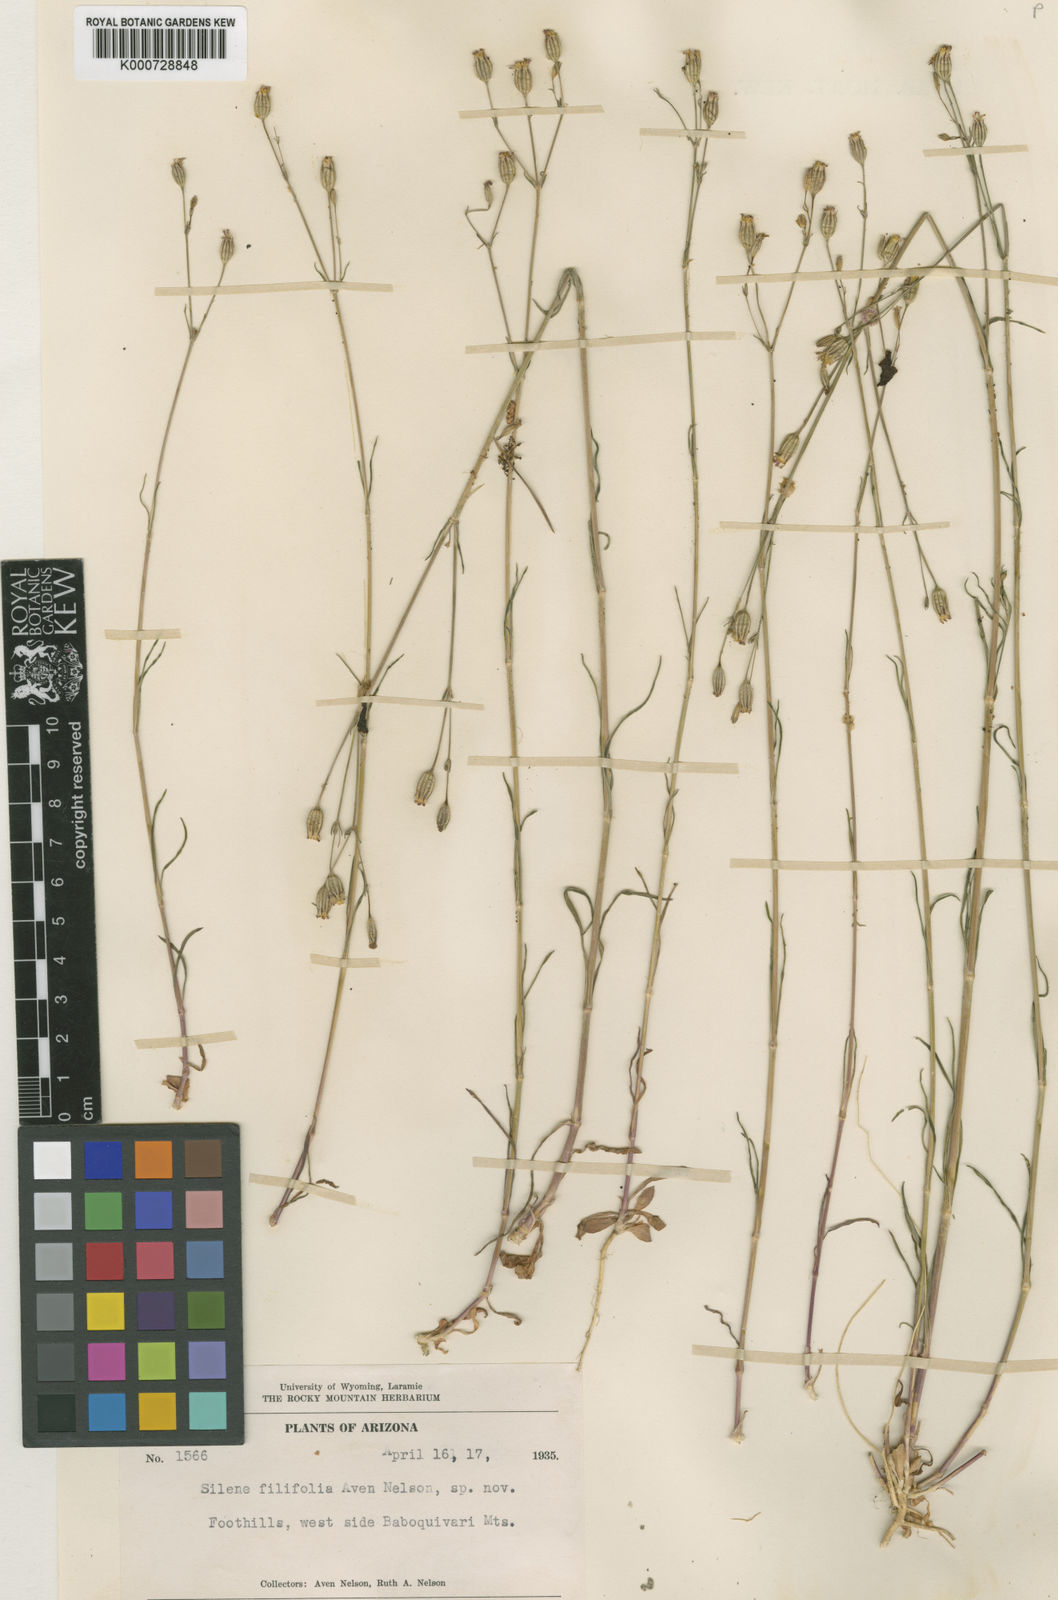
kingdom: Plantae
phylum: Tracheophyta
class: Magnoliopsida
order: Caryophyllales
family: Caryophyllaceae
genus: Silene
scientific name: Silene antirrhina
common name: Sleepy catchfly
